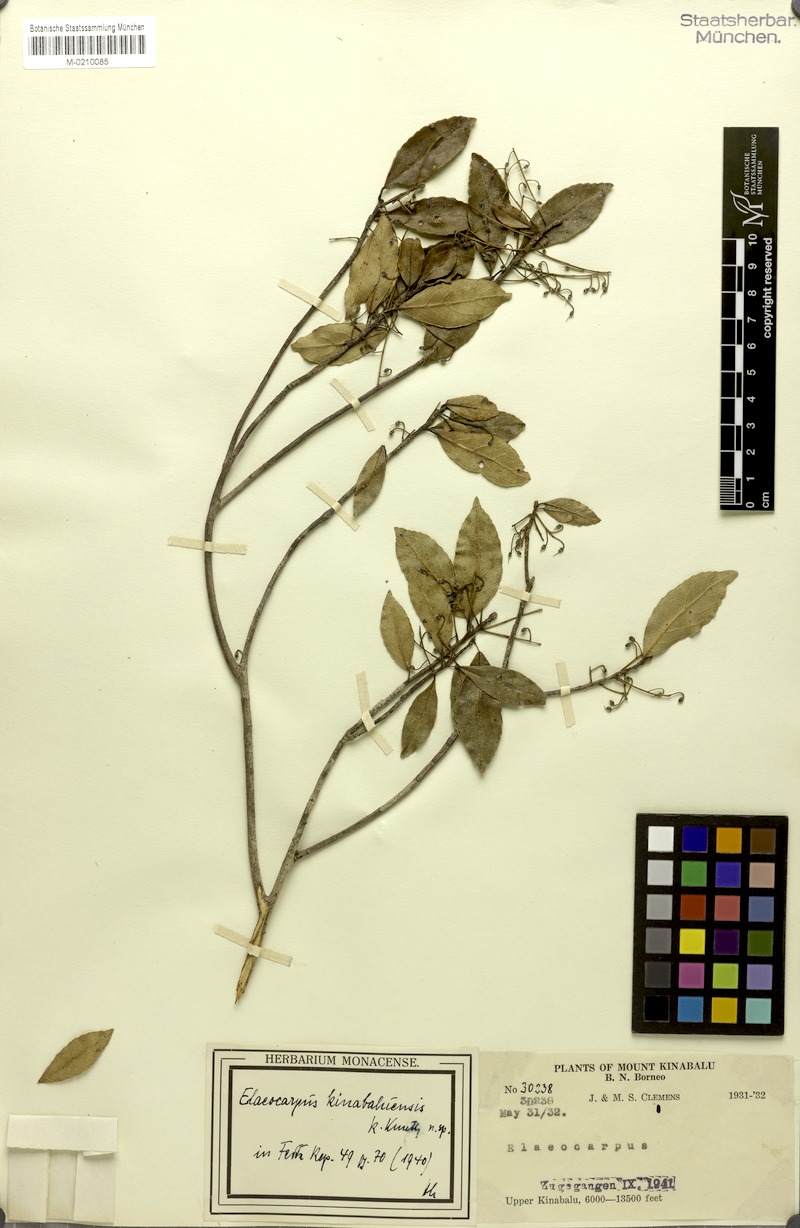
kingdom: Plantae
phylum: Tracheophyta
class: Magnoliopsida
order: Oxalidales
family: Elaeocarpaceae
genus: Elaeocarpus
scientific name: Elaeocarpus kinabaluensis
